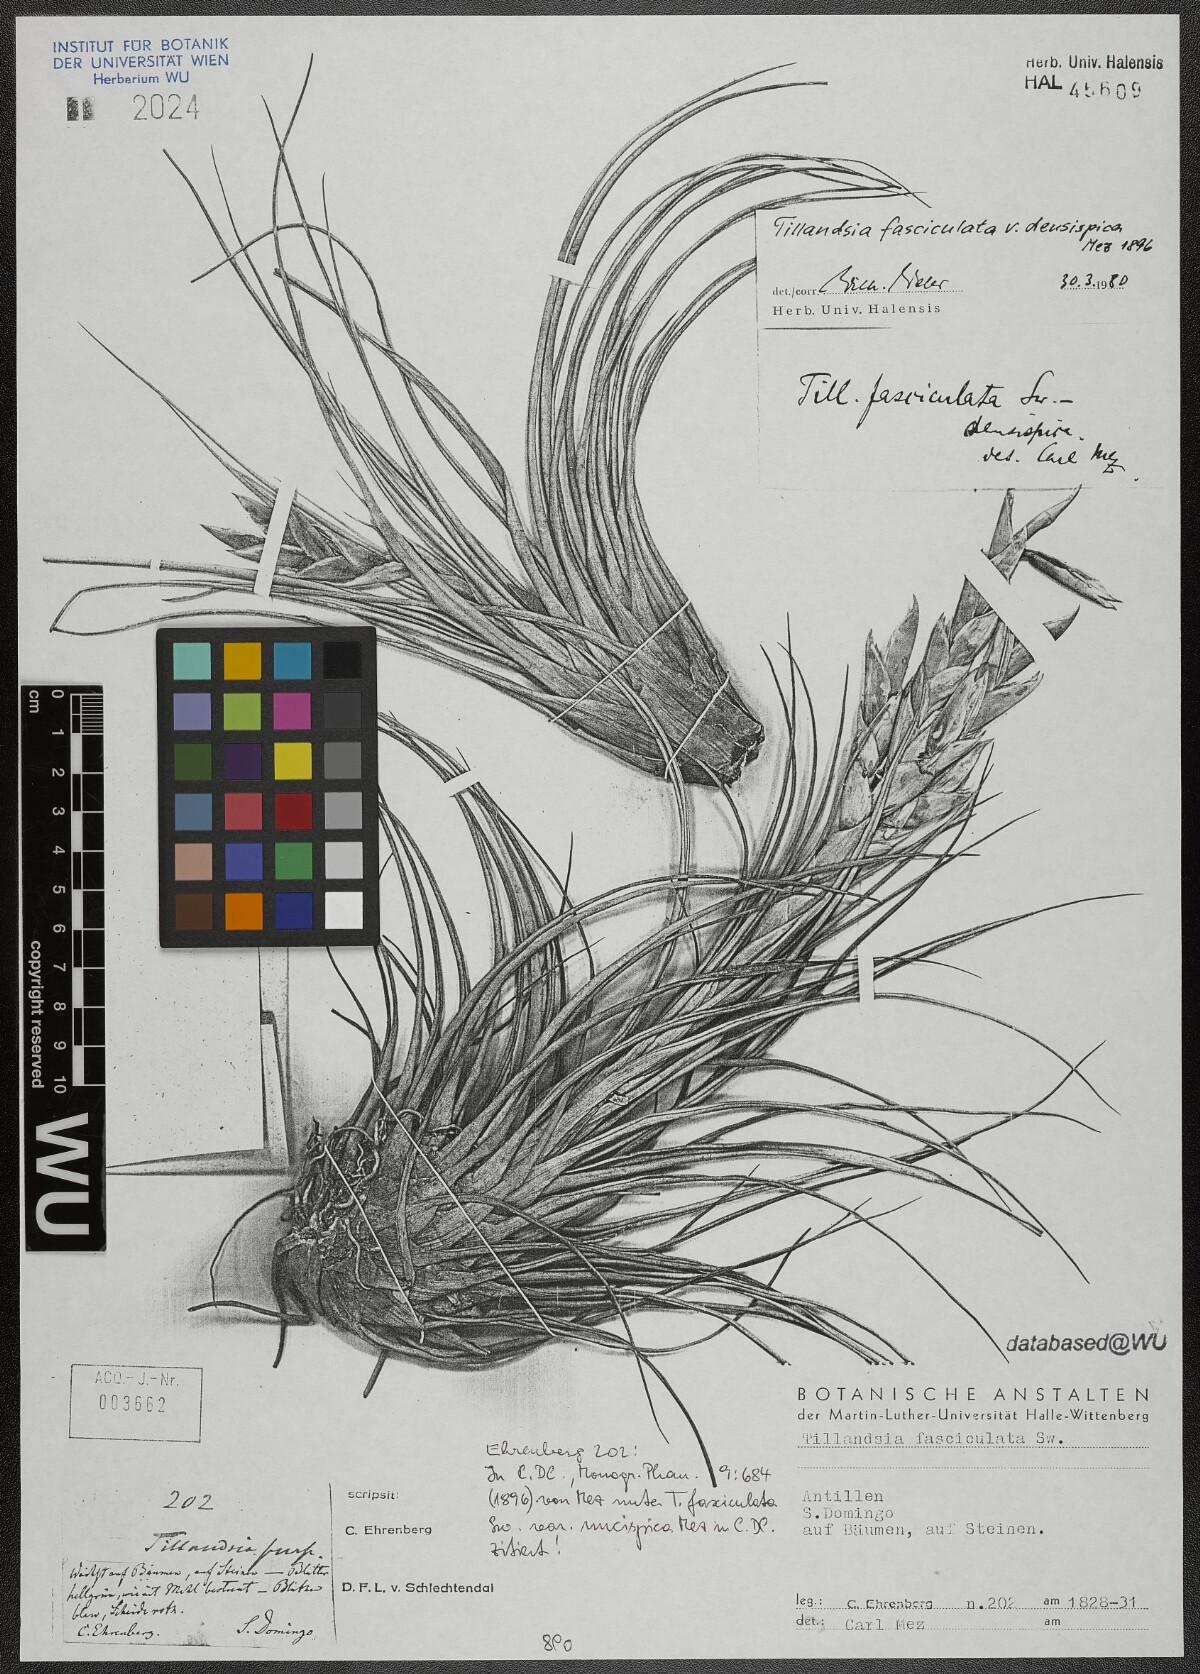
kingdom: Plantae
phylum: Tracheophyta
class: Liliopsida
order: Poales
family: Bromeliaceae
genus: Tillandsia
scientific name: Tillandsia fasciculata
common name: Giant airplant
